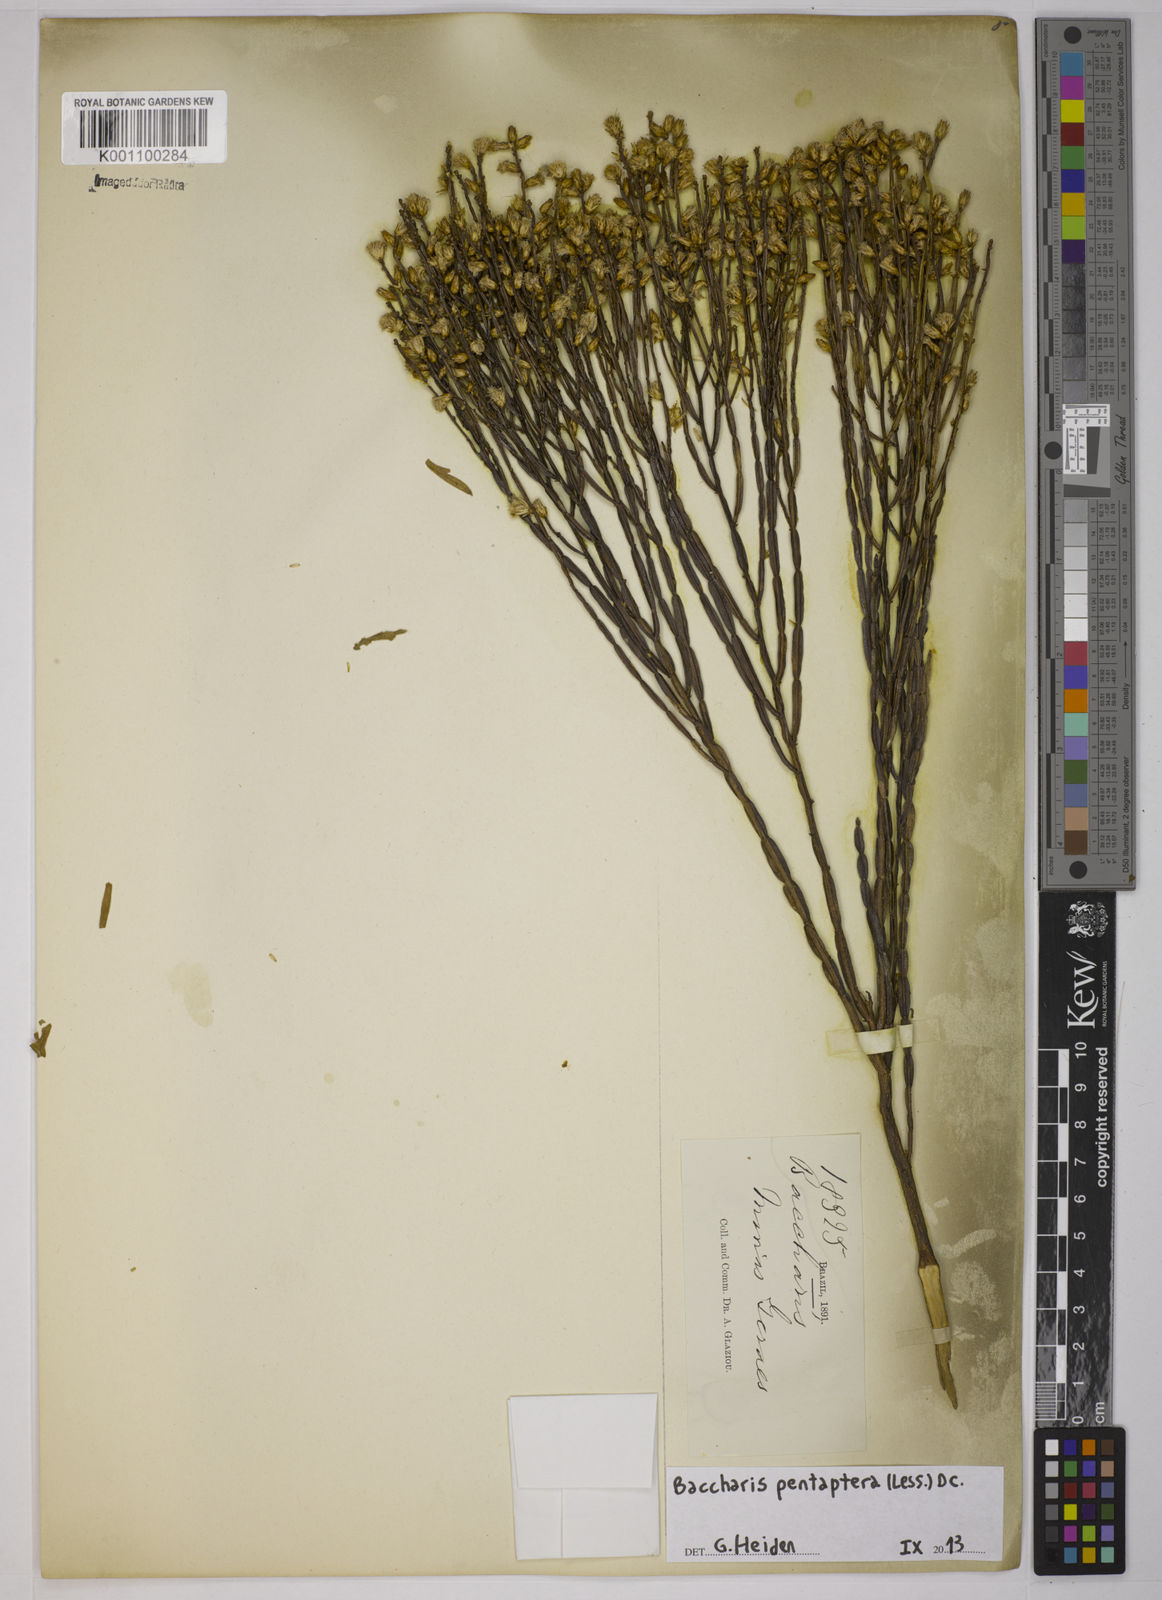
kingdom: Plantae
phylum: Tracheophyta
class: Magnoliopsida
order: Asterales
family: Asteraceae
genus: Baccharis
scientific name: Baccharis pentaptera
